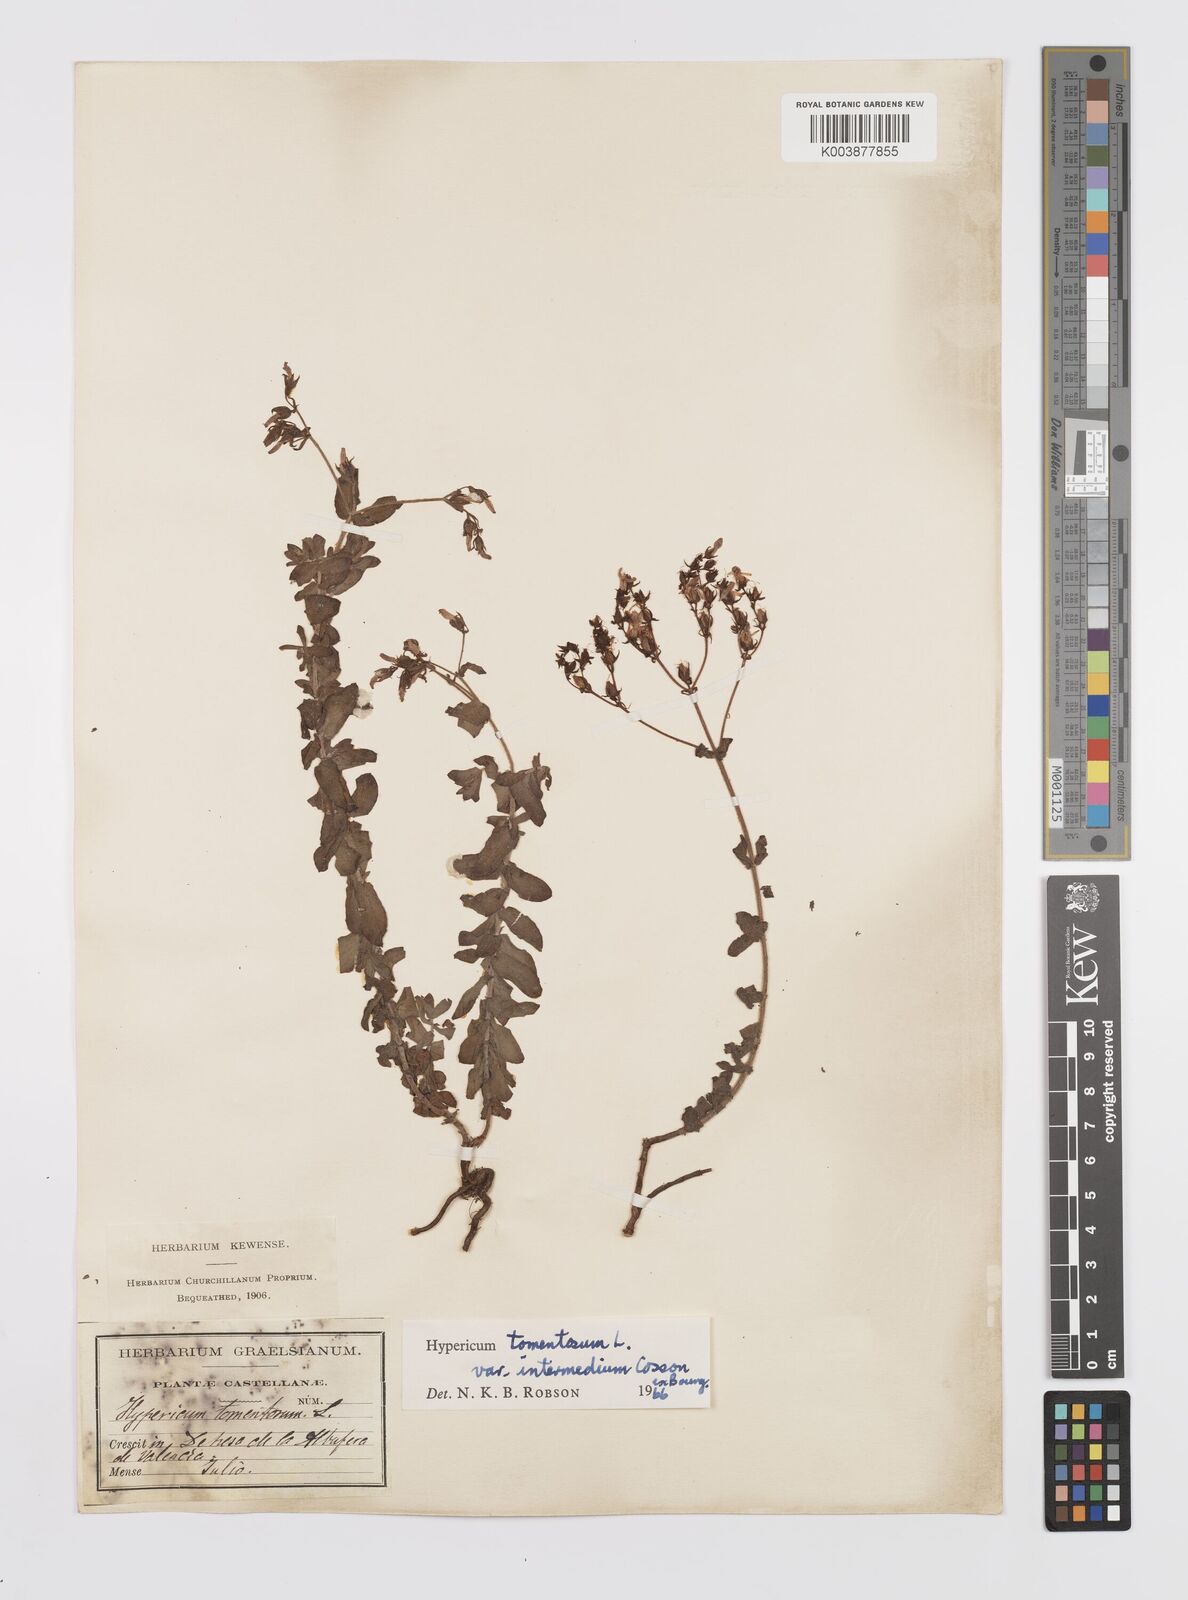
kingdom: Plantae
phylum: Tracheophyta
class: Magnoliopsida
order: Malpighiales
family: Hypericaceae
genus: Hypericum
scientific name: Hypericum tomentosum
